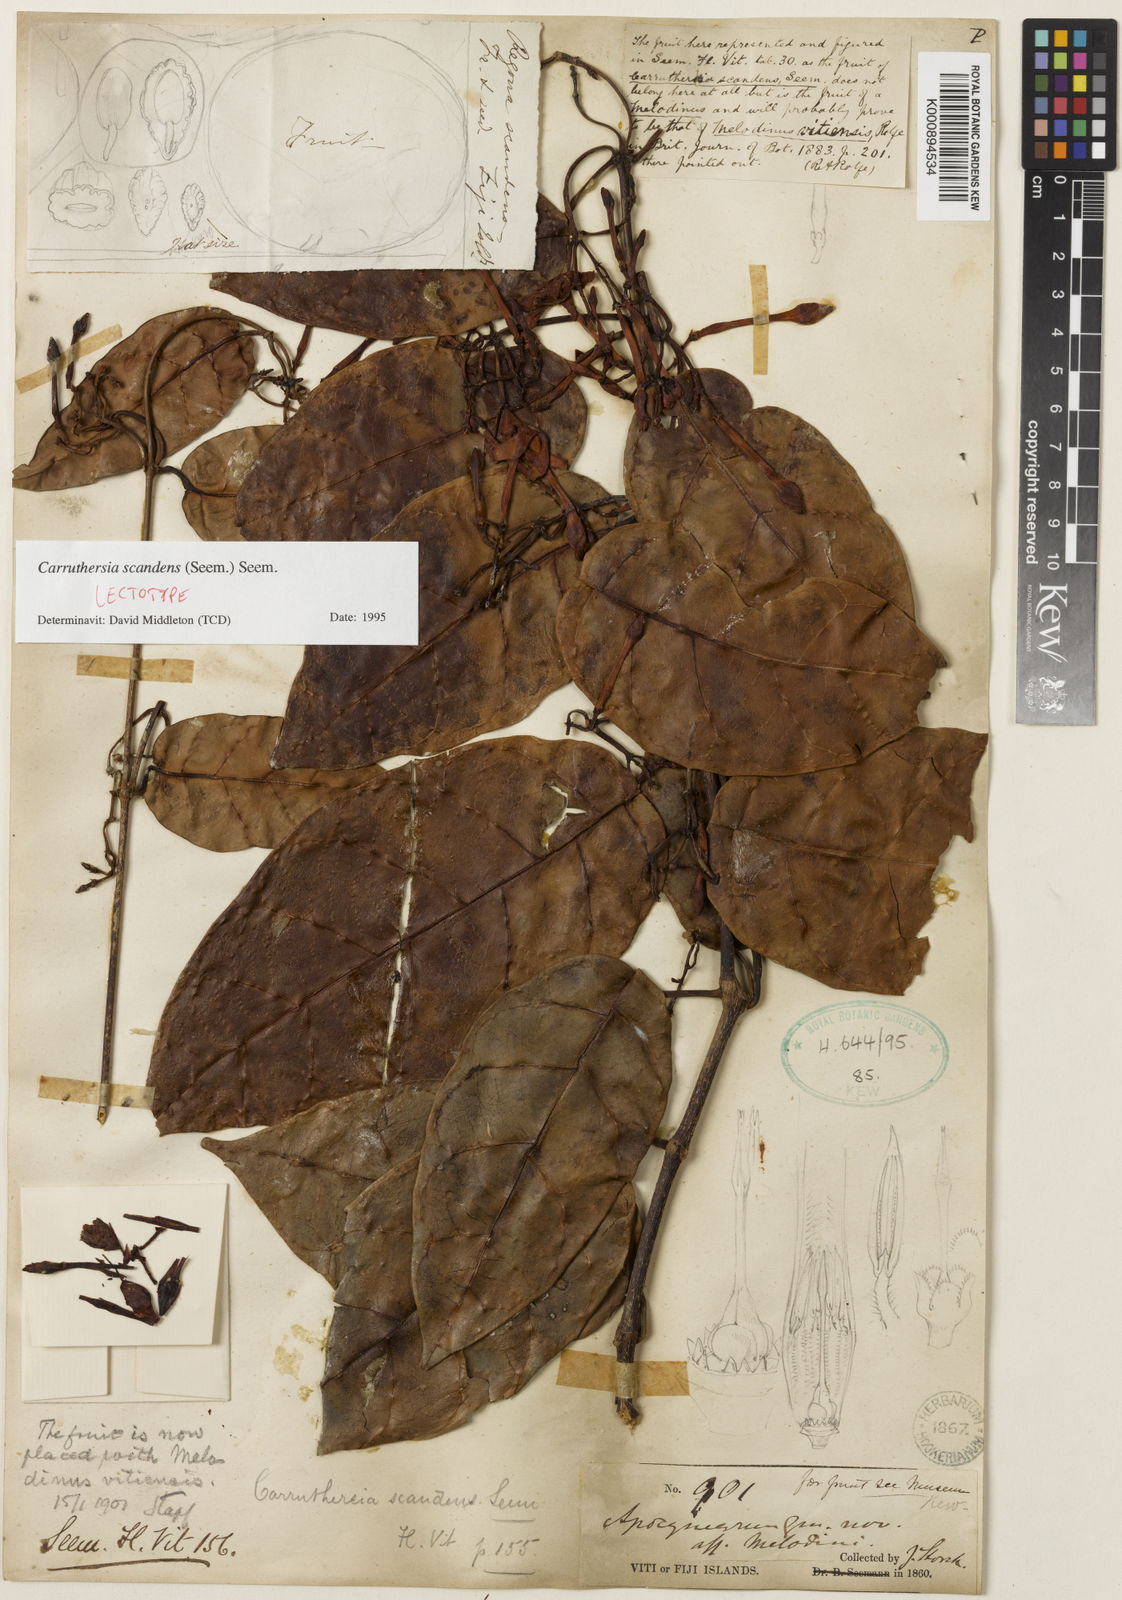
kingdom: Plantae
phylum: Tracheophyta
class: Magnoliopsida
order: Gentianales
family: Apocynaceae
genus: Carruthersia
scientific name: Carruthersia scandens
